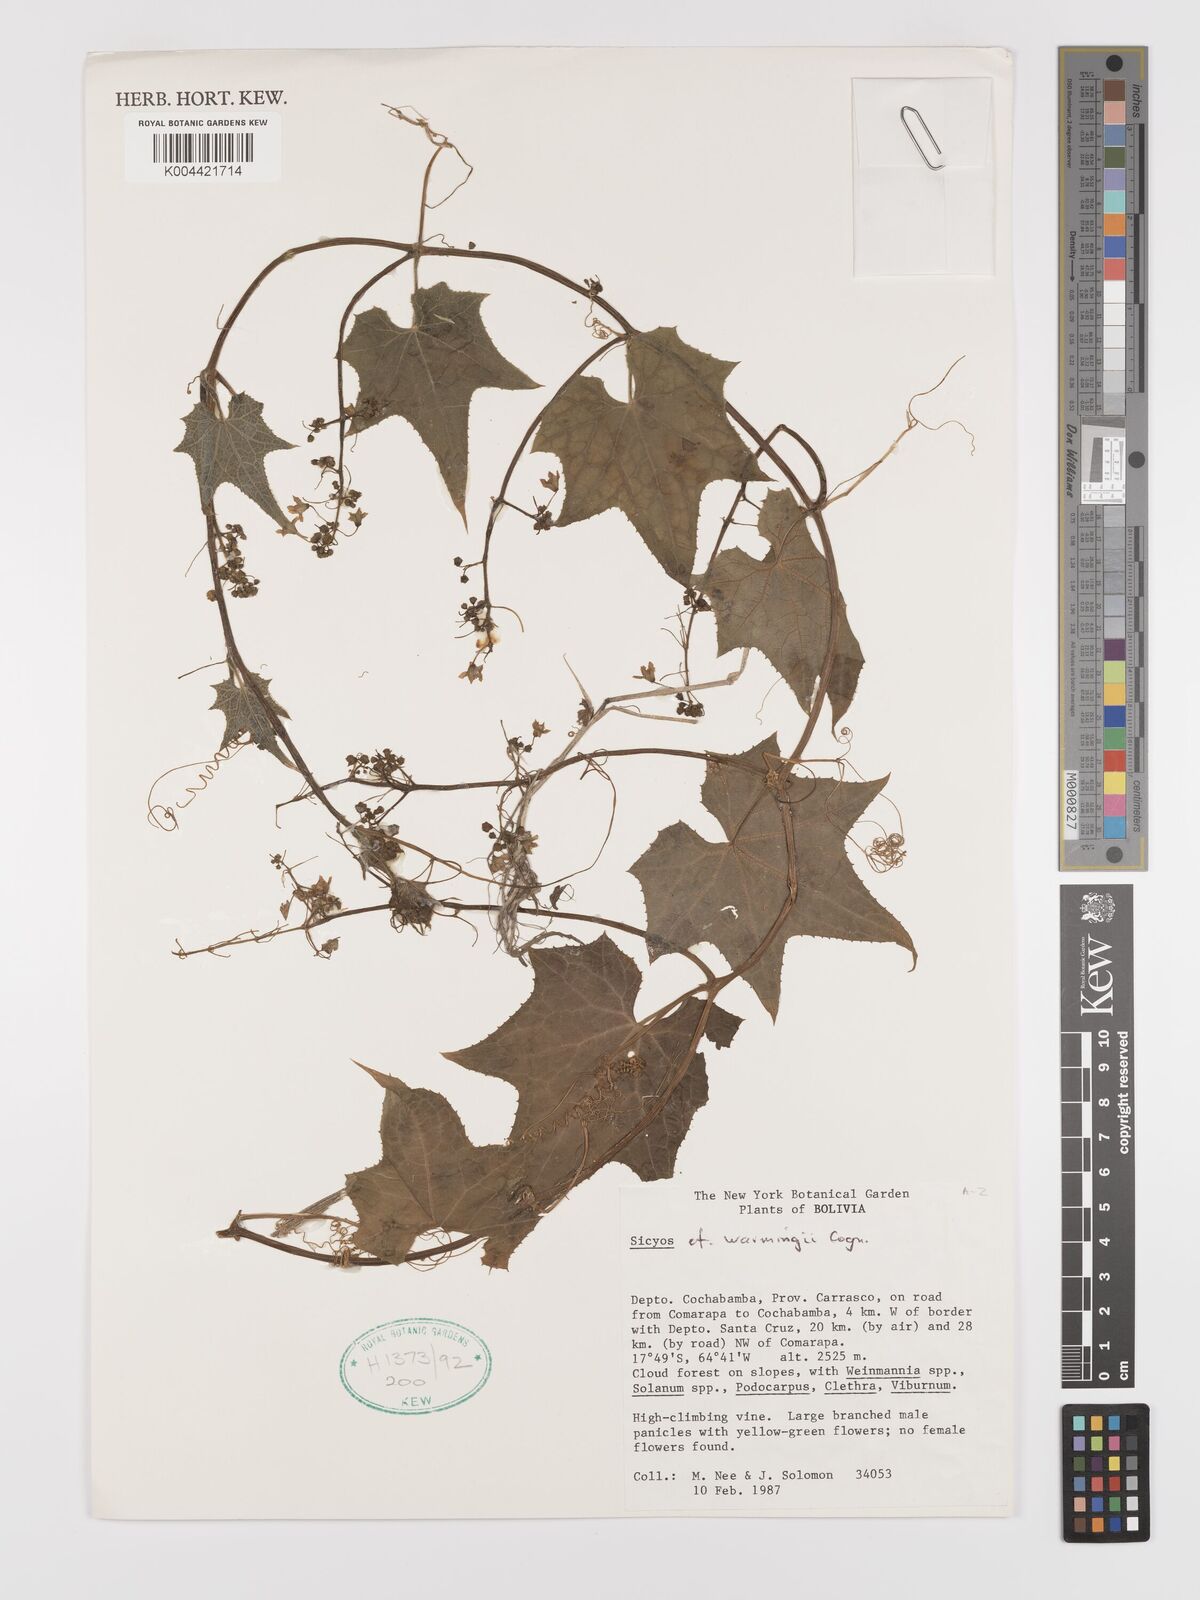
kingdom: Plantae
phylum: Tracheophyta
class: Magnoliopsida
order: Cucurbitales
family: Cucurbitaceae
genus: Sicyos
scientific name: Sicyos kunthii
